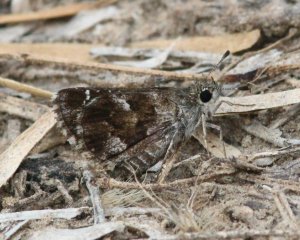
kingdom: Animalia
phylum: Arthropoda
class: Insecta
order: Lepidoptera
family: Hesperiidae
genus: Mastor
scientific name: Mastor nysa
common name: Nysa Roadside-Skipper
